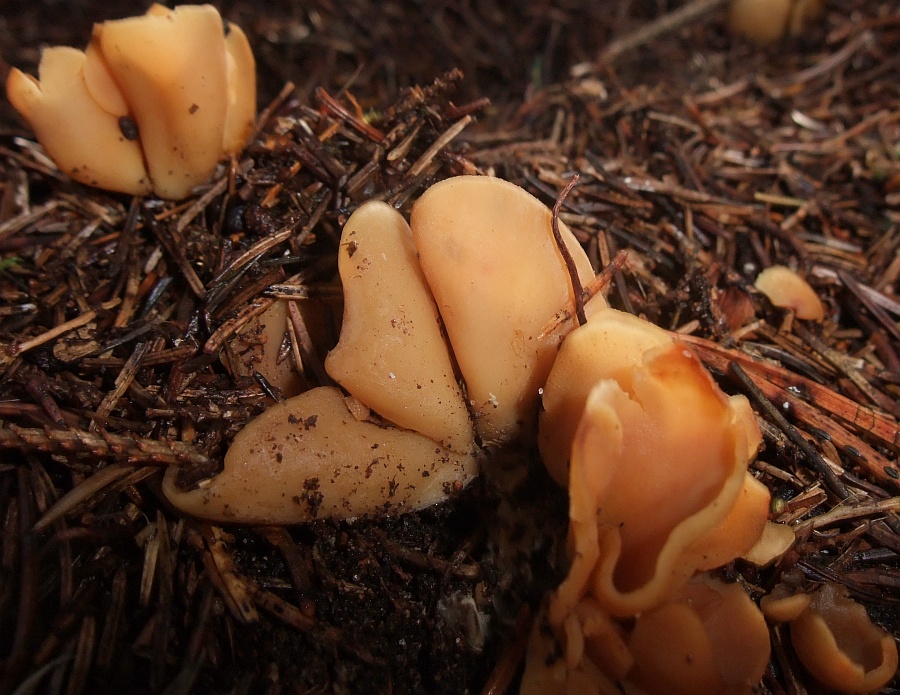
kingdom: Fungi
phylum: Ascomycota
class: Pezizomycetes
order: Pezizales
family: Otideaceae
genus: Otidea
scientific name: Otidea onotica
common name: æsel-ørebæger
